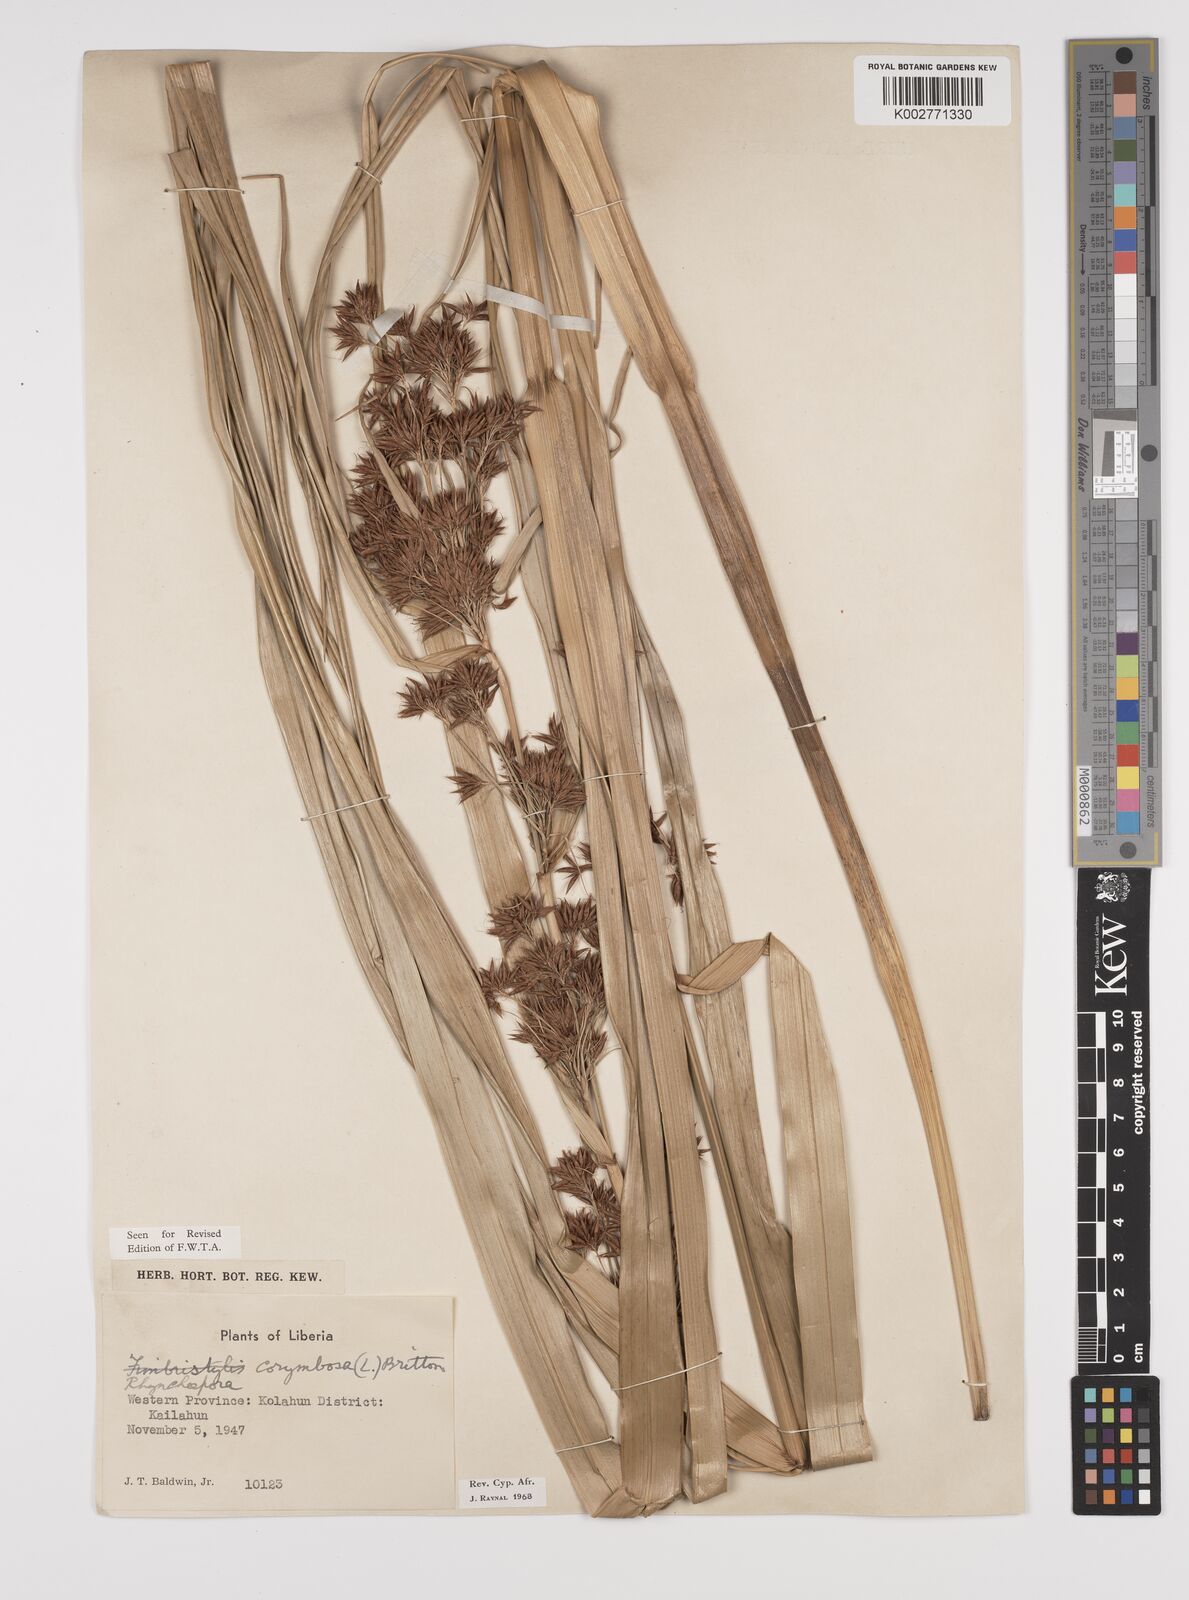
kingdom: Plantae
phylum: Tracheophyta
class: Liliopsida
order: Poales
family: Cyperaceae
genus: Rhynchospora
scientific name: Rhynchospora corymbosa
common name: Golden beak sedge
